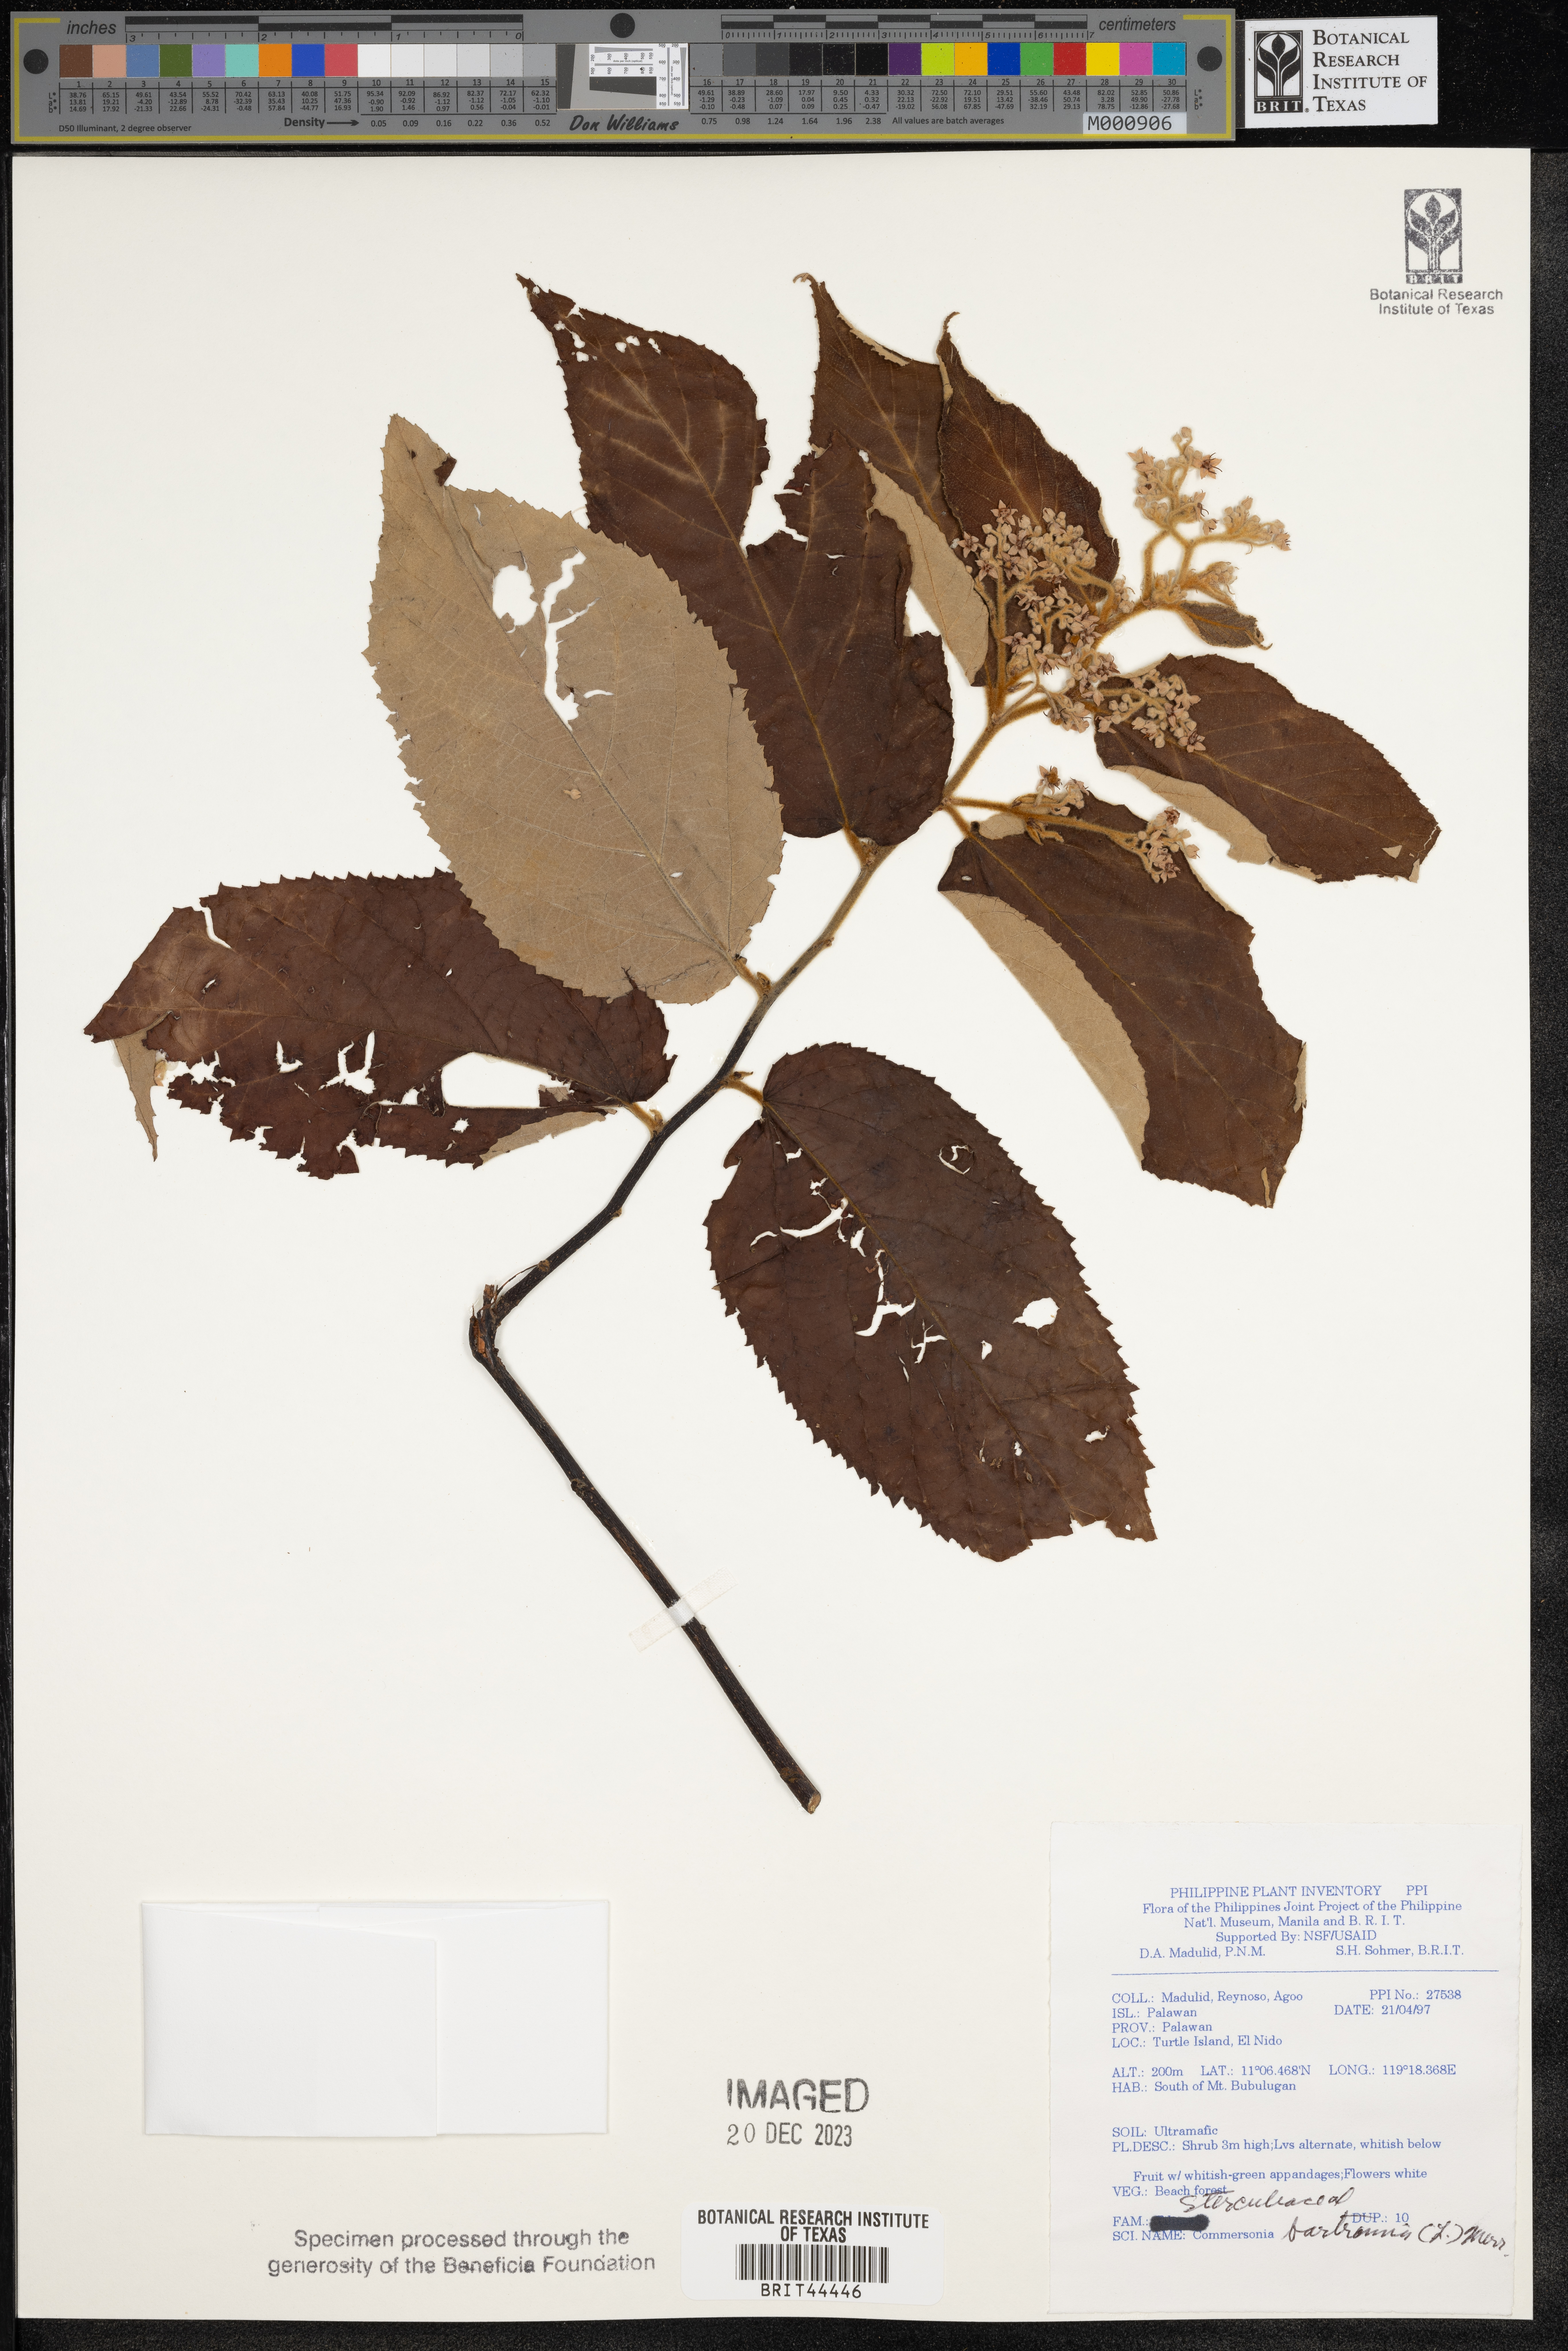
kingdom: Plantae
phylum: Tracheophyta
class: Magnoliopsida
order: Malvales
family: Malvaceae
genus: Commersonia
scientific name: Commersonia bartramia
